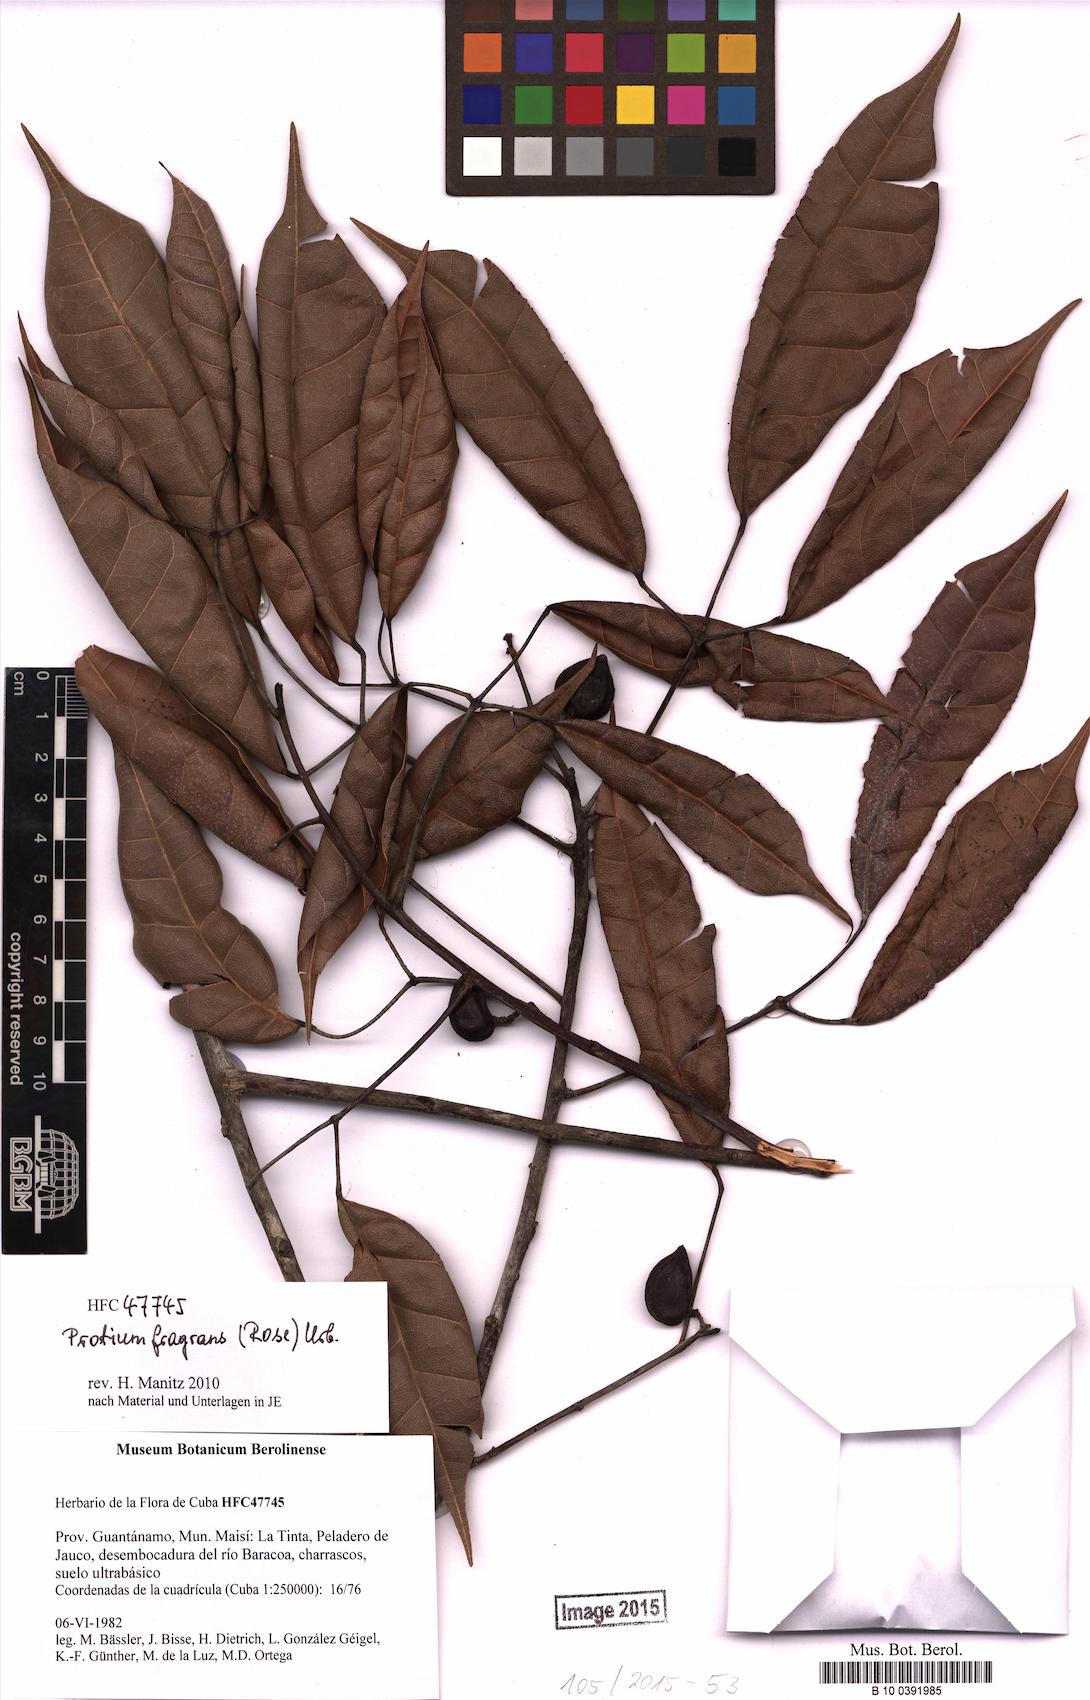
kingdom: Plantae
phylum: Tracheophyta
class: Magnoliopsida
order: Sapindales
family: Burseraceae
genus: Protium
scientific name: Protium fragrans
